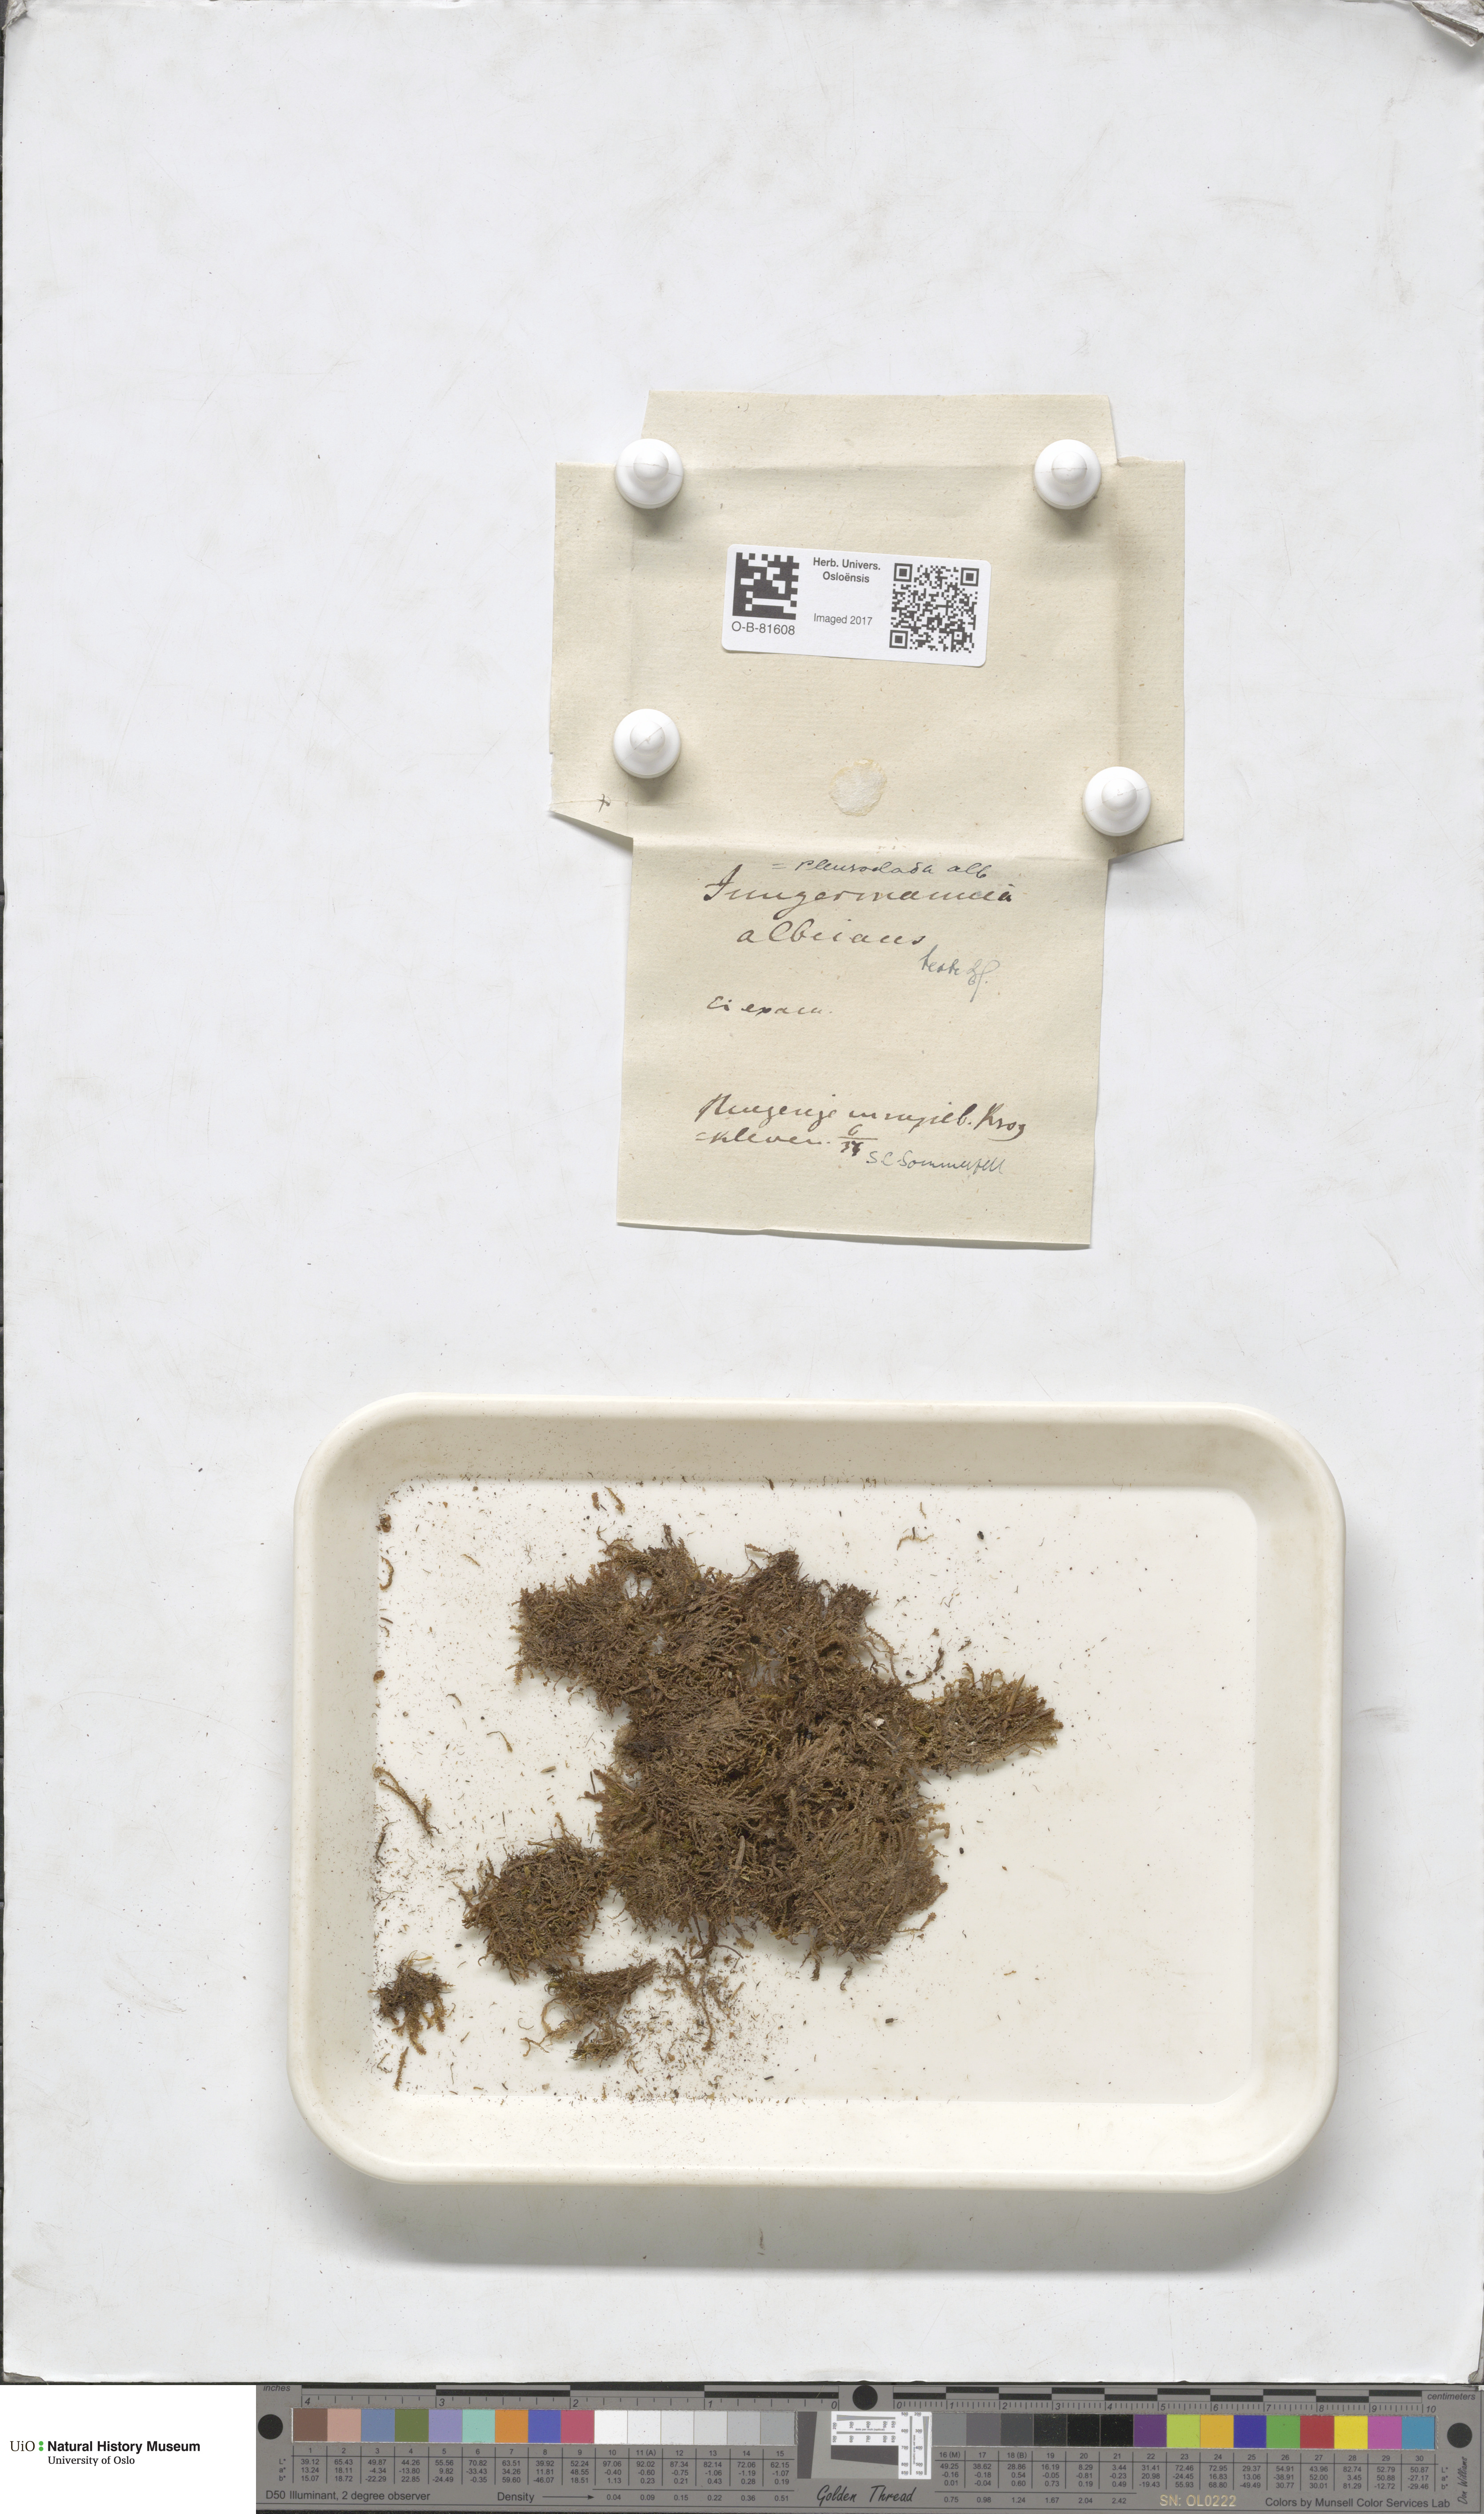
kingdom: Plantae
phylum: Marchantiophyta
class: Jungermanniopsida
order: Jungermanniales
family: Cephaloziaceae
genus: Fuscocephaloziopsis
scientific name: Fuscocephaloziopsis albescens
